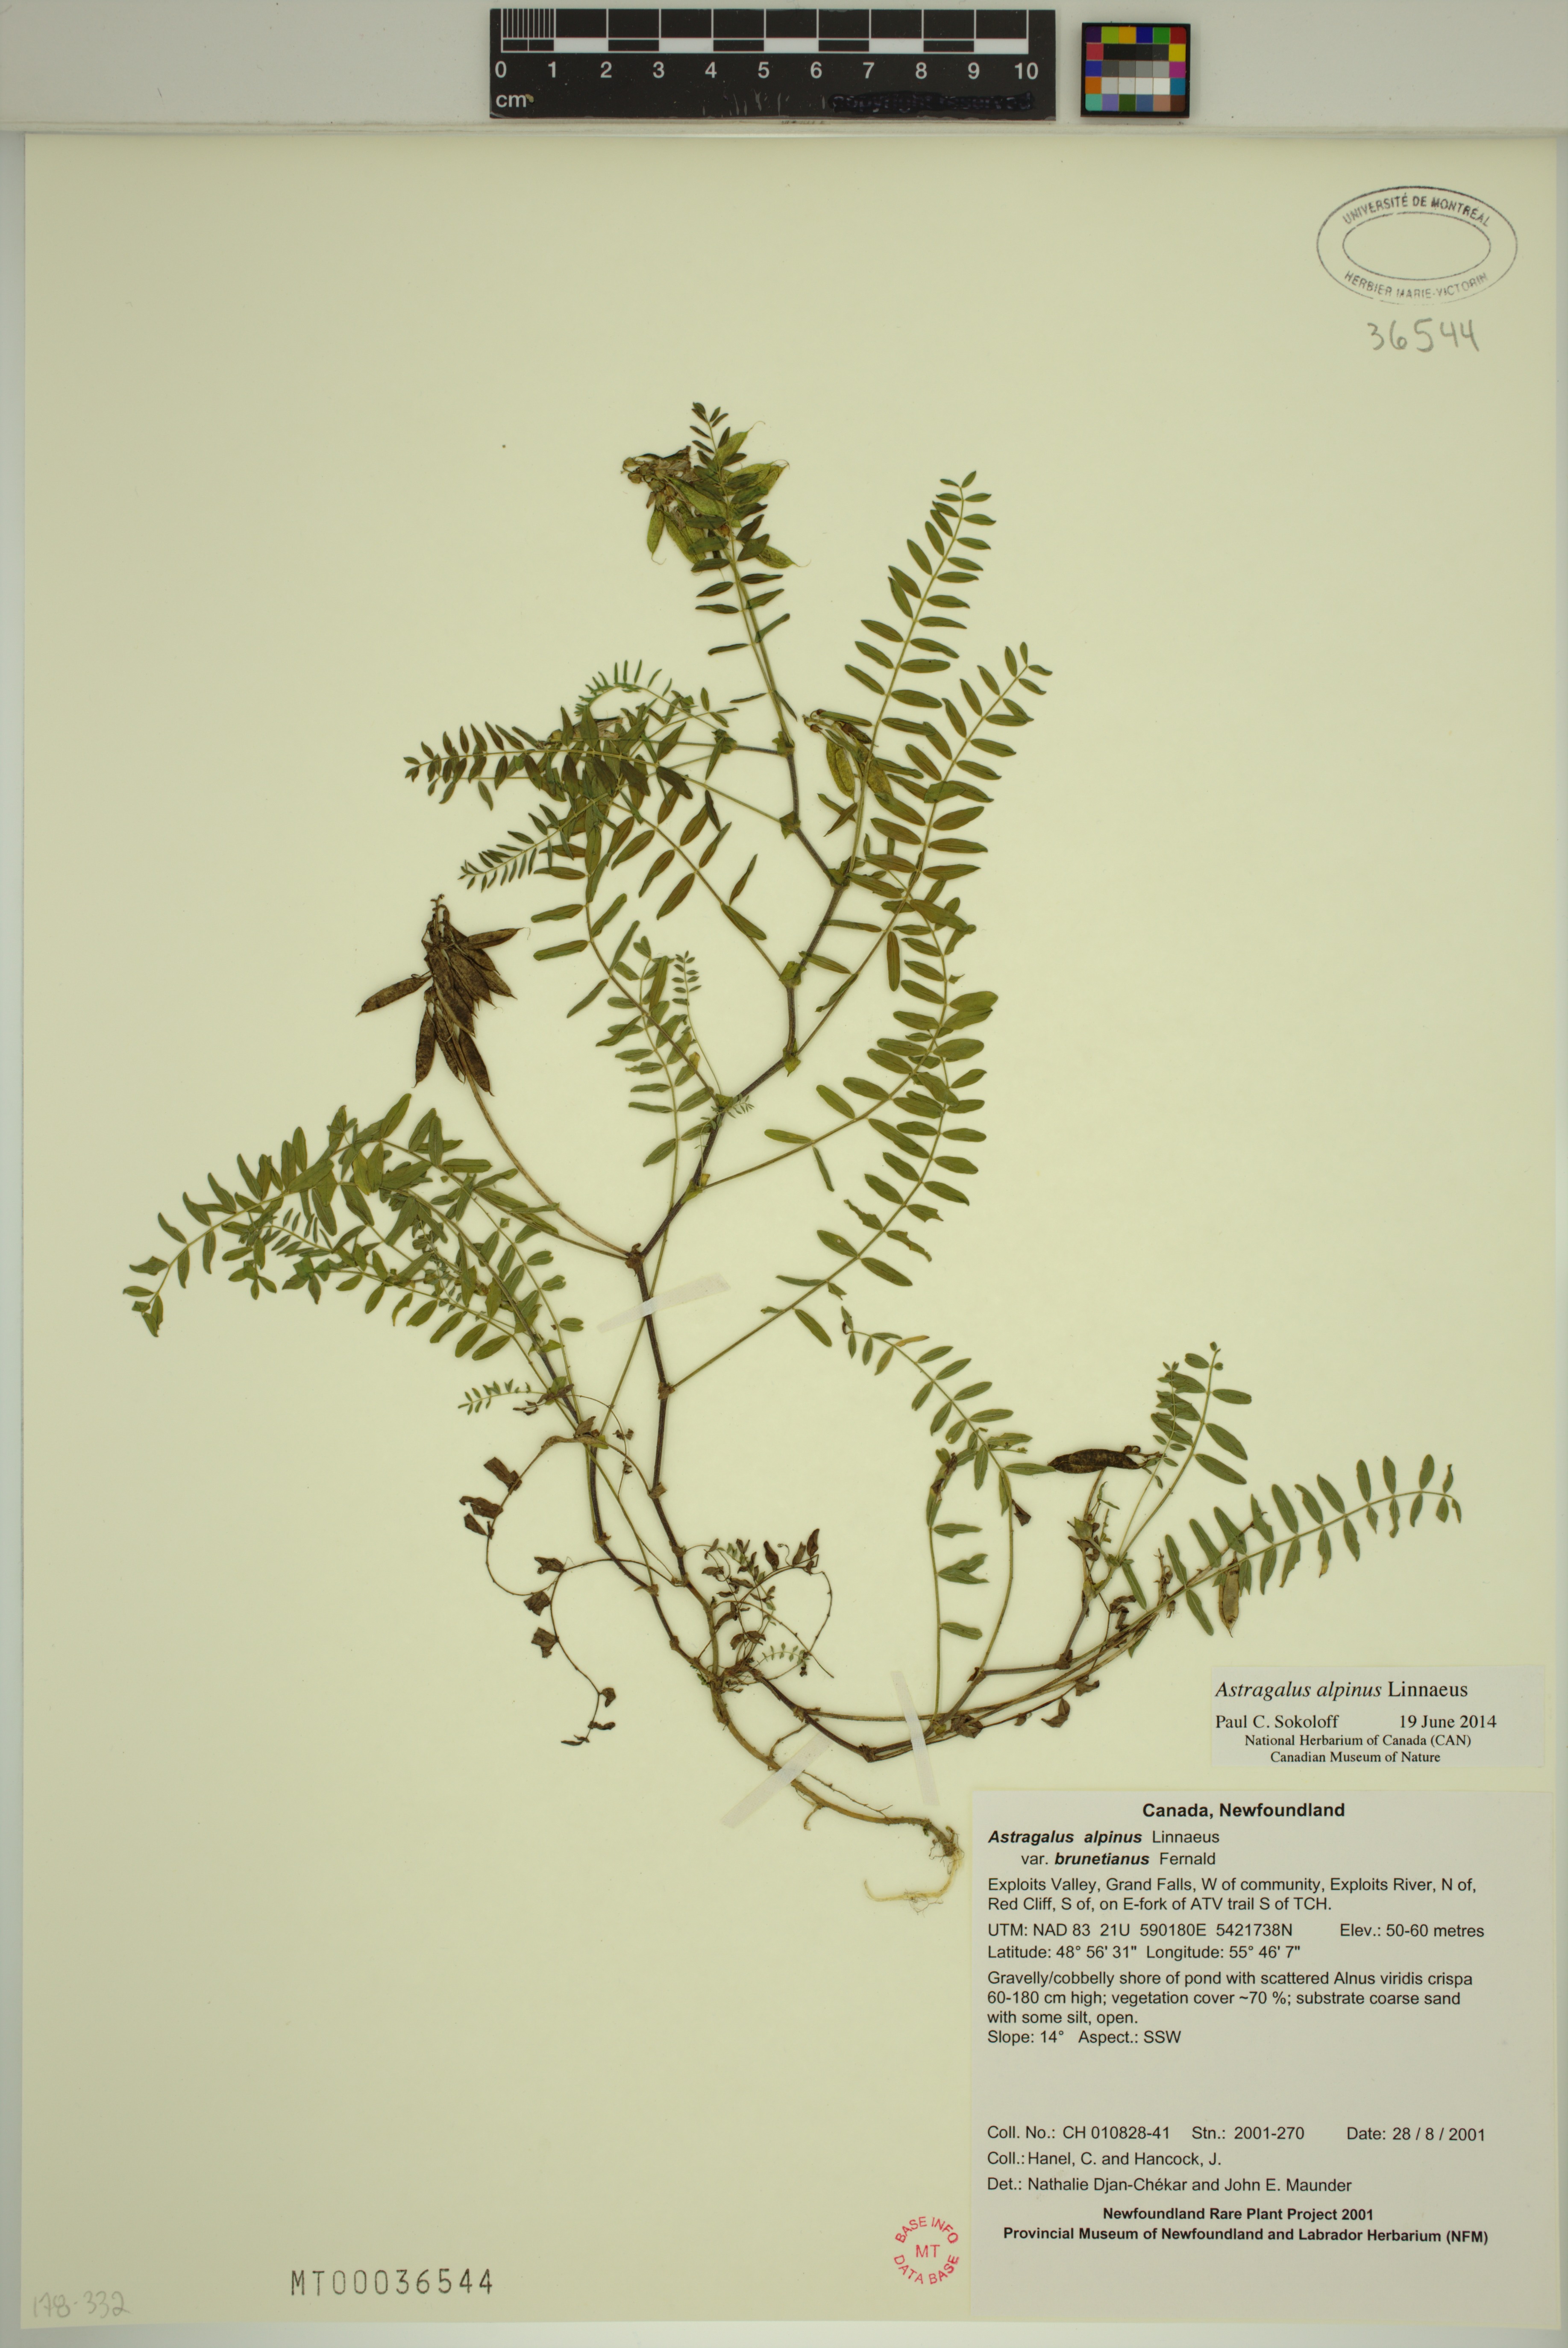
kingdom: Plantae
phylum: Tracheophyta
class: Magnoliopsida
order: Fabales
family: Fabaceae
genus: Astragalus
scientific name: Astragalus alpinus
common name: Alpine milk-vetch
